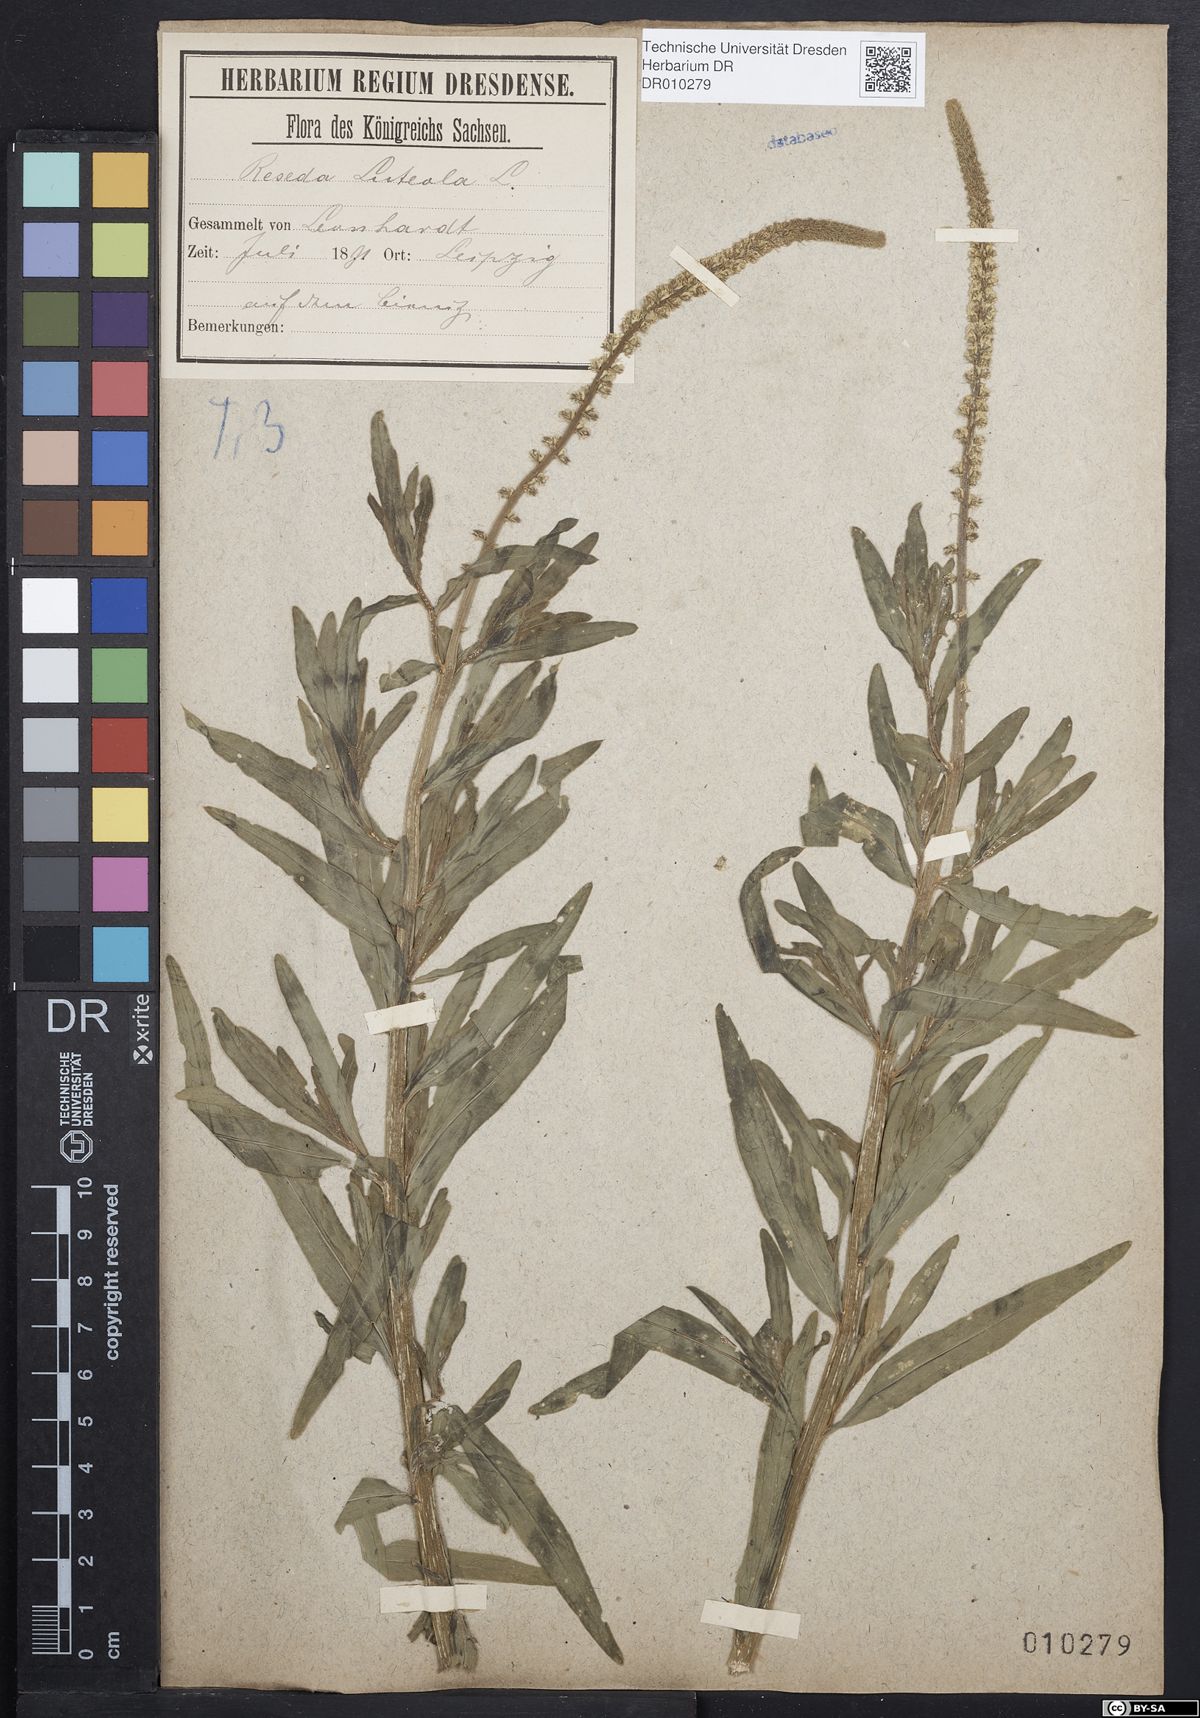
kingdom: Plantae
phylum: Tracheophyta
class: Magnoliopsida
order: Brassicales
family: Resedaceae
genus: Reseda
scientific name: Reseda luteola
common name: Weld
